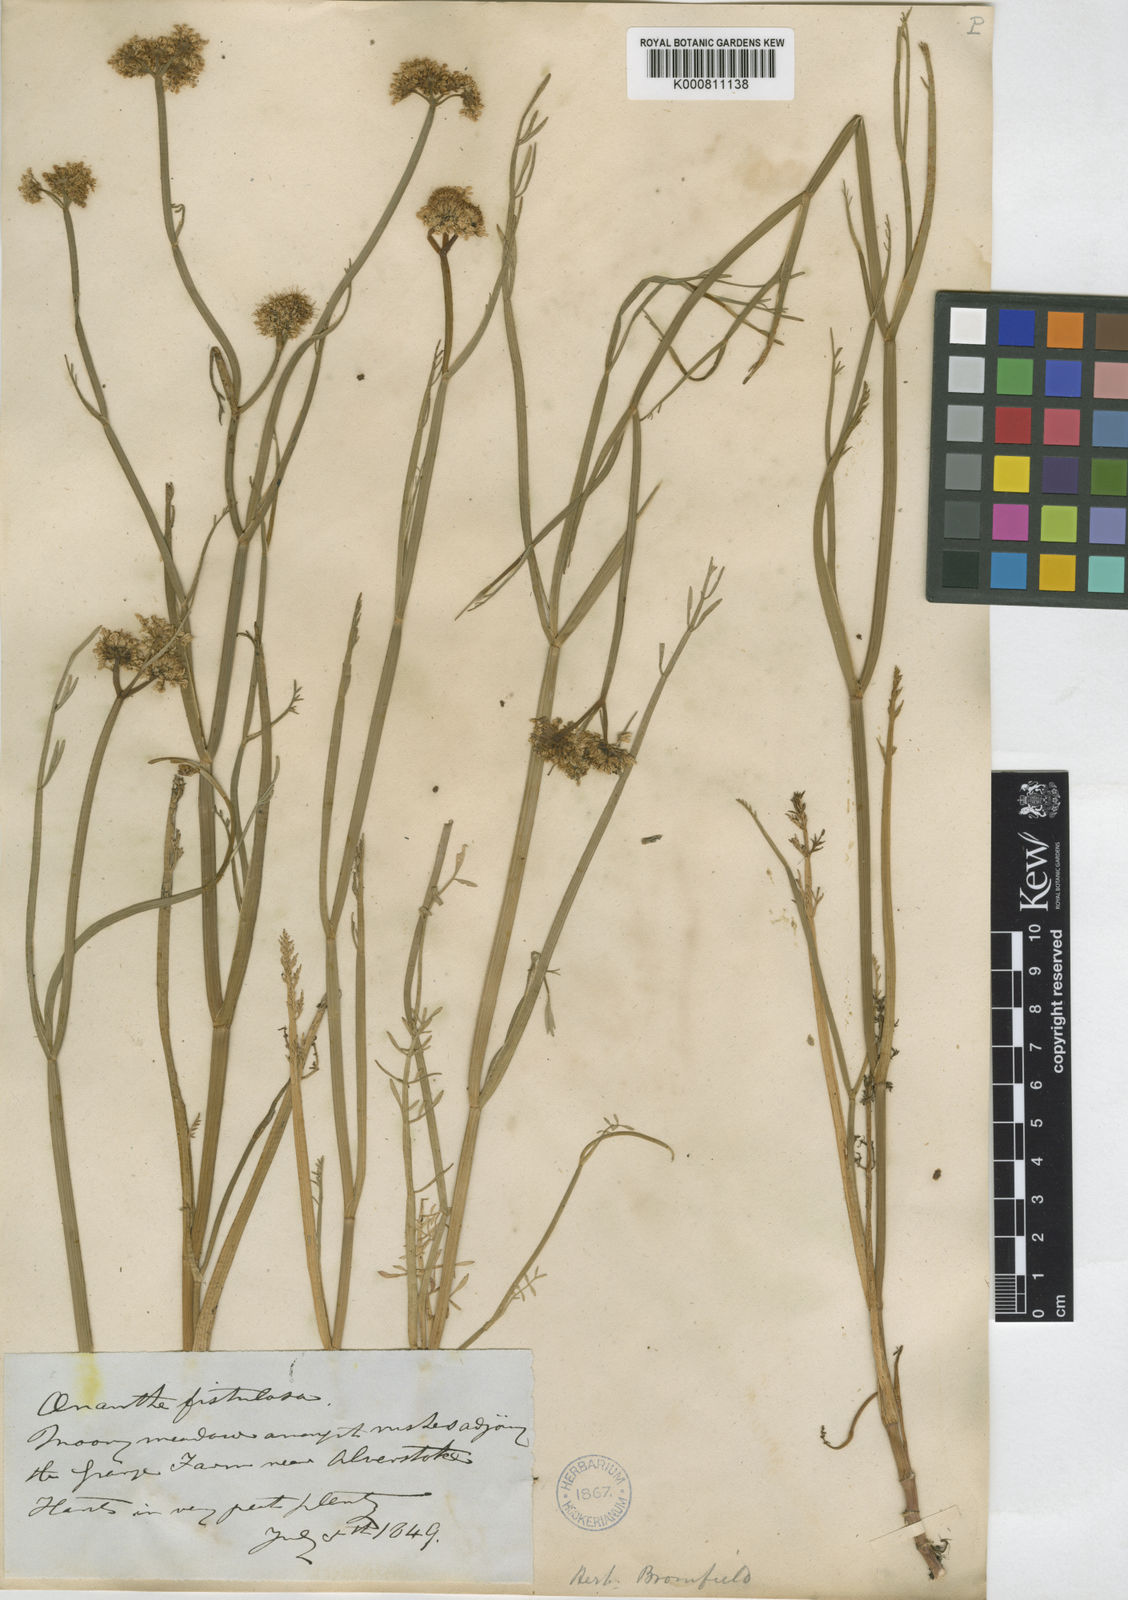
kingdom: Plantae
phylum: Tracheophyta
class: Magnoliopsida
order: Apiales
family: Apiaceae
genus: Oenanthe
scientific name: Oenanthe fistulosa
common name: Tubular water-dropwort
